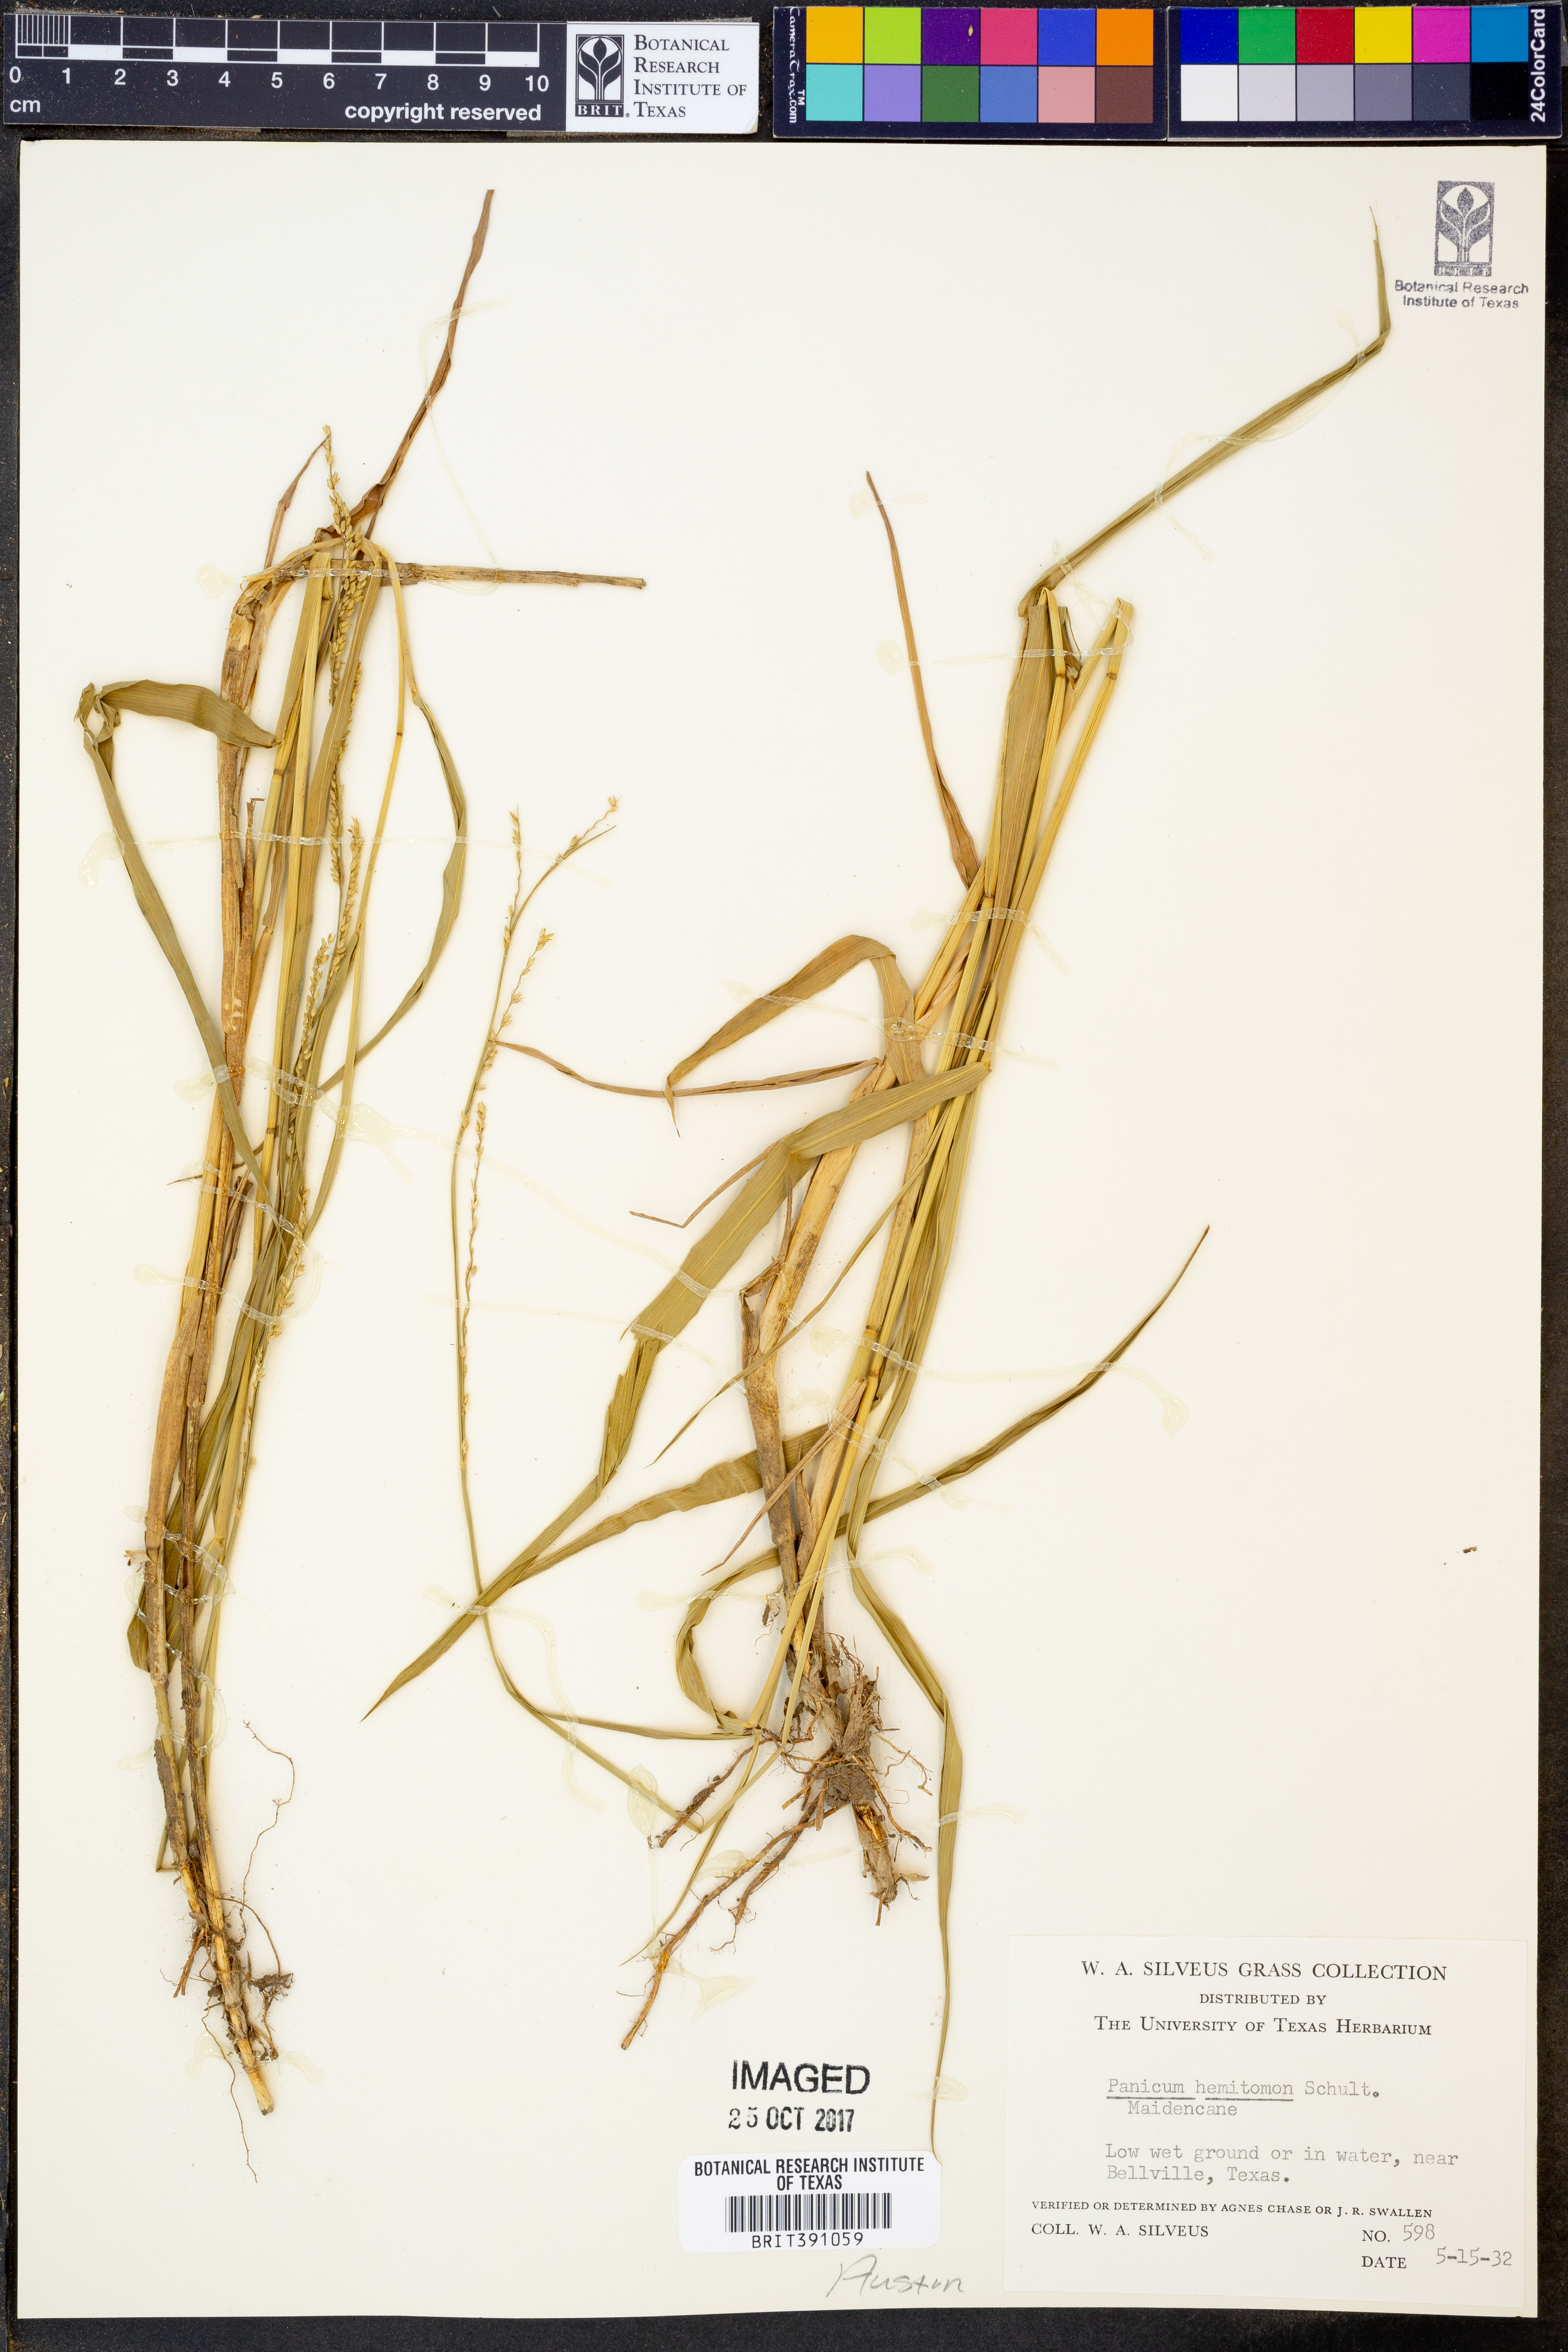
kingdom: Plantae
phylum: Tracheophyta
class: Liliopsida
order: Poales
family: Poaceae
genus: Panicum
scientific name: Panicum hemitomon
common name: Maidencane
